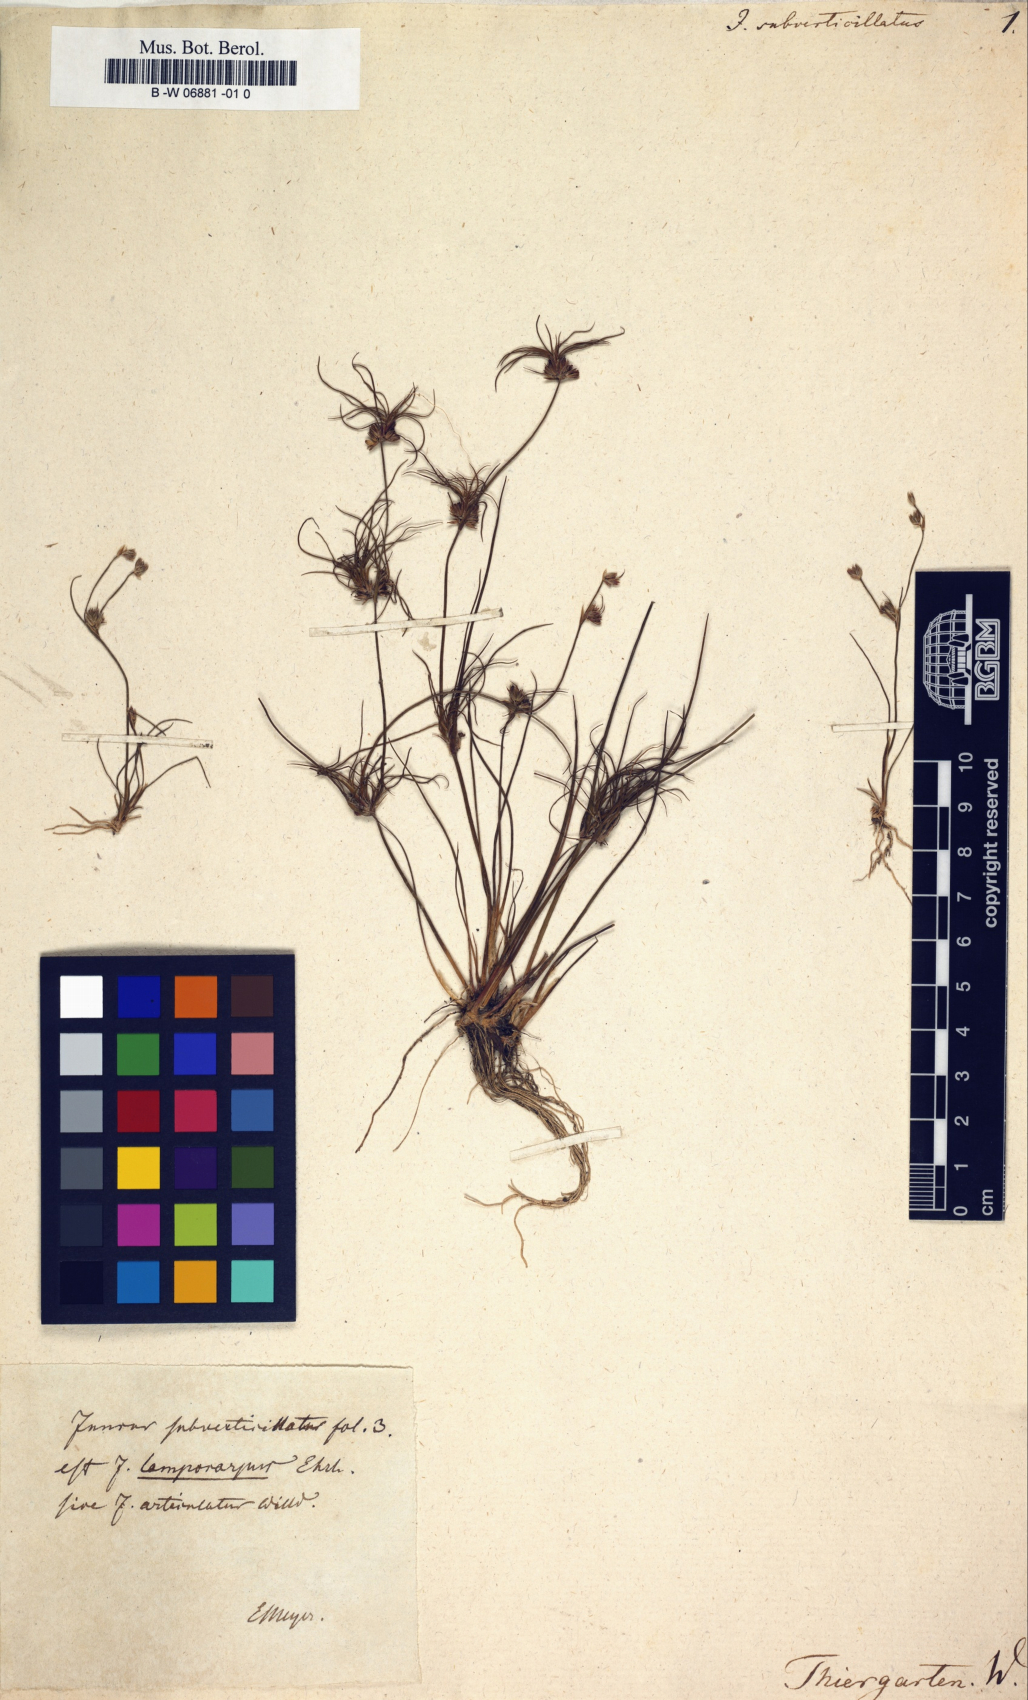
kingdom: Plantae
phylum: Tracheophyta
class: Liliopsida
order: Poales
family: Juncaceae
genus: Juncus
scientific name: Juncus subverticillatus
